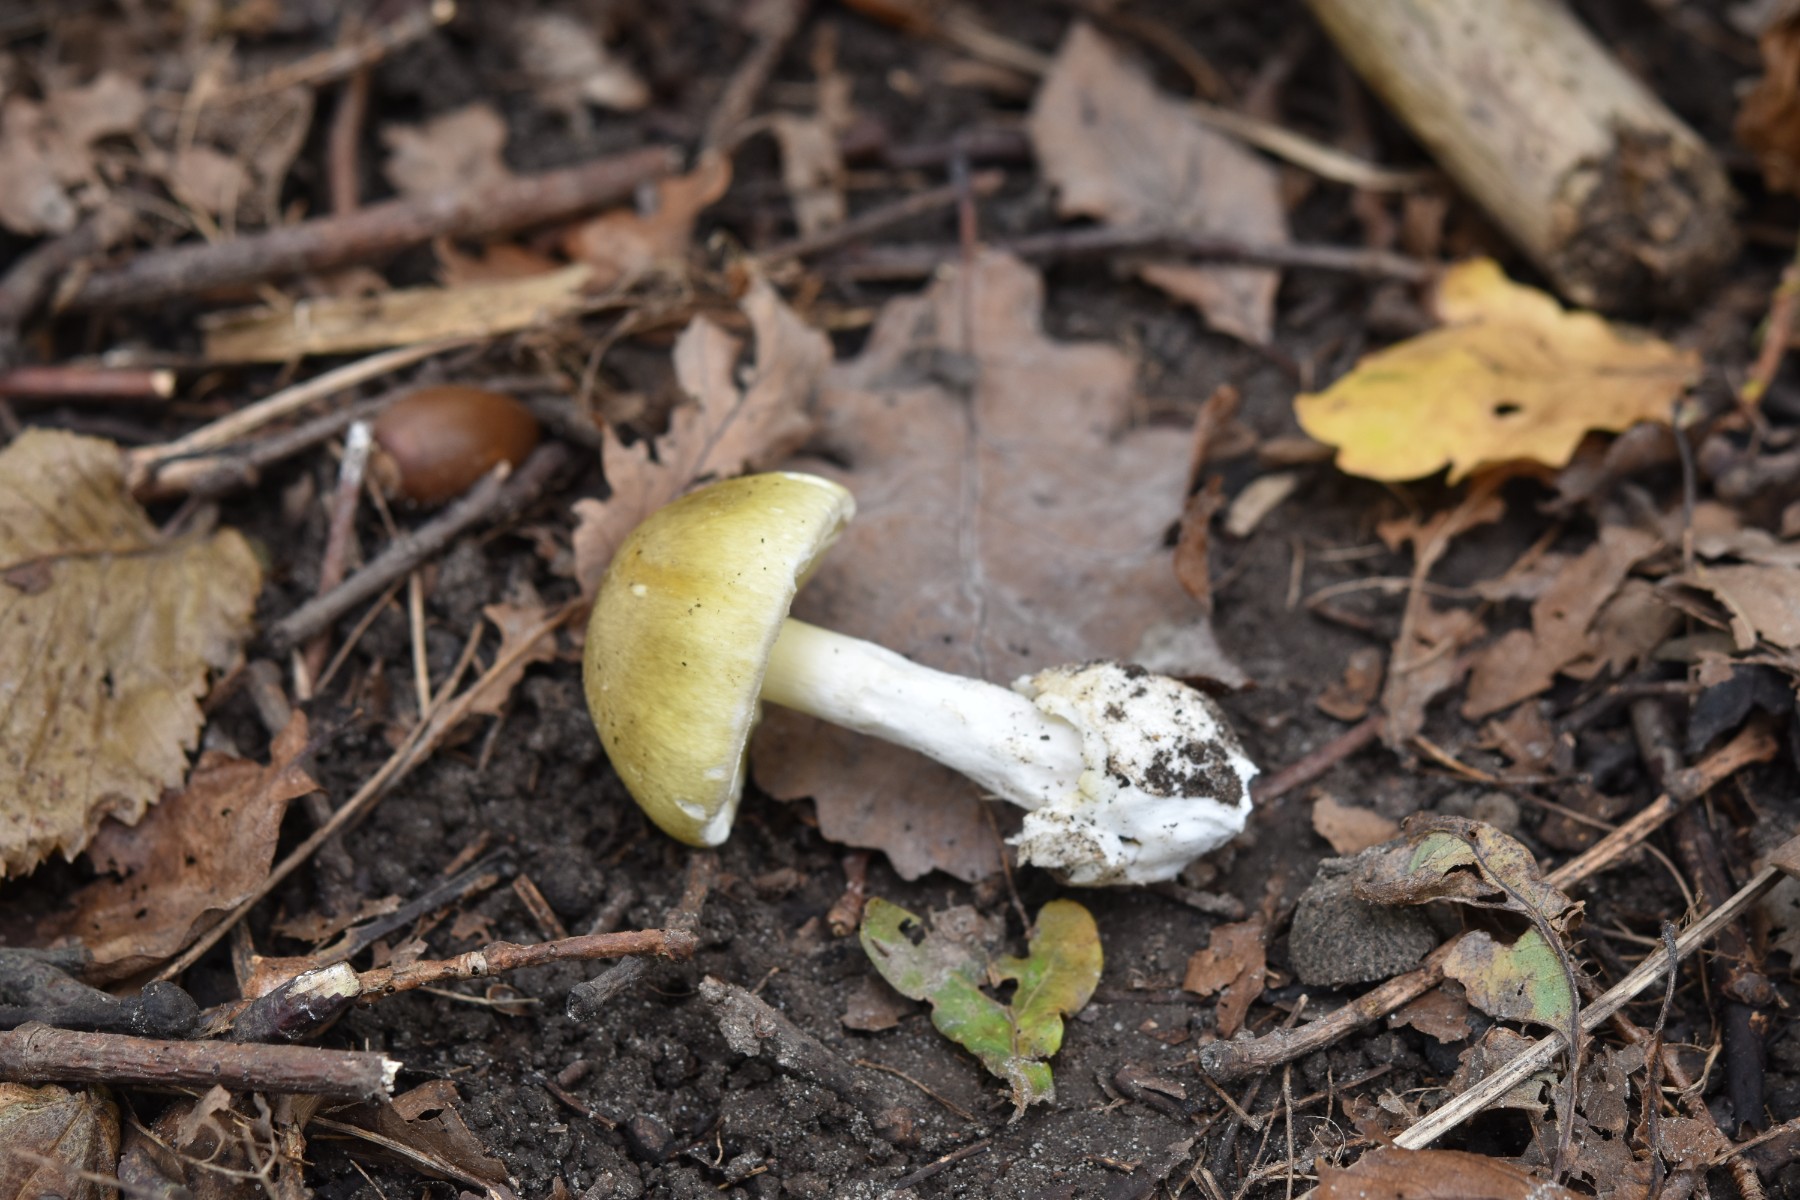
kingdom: Fungi
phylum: Basidiomycota
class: Agaricomycetes
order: Agaricales
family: Amanitaceae
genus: Amanita
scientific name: Amanita phalloides
